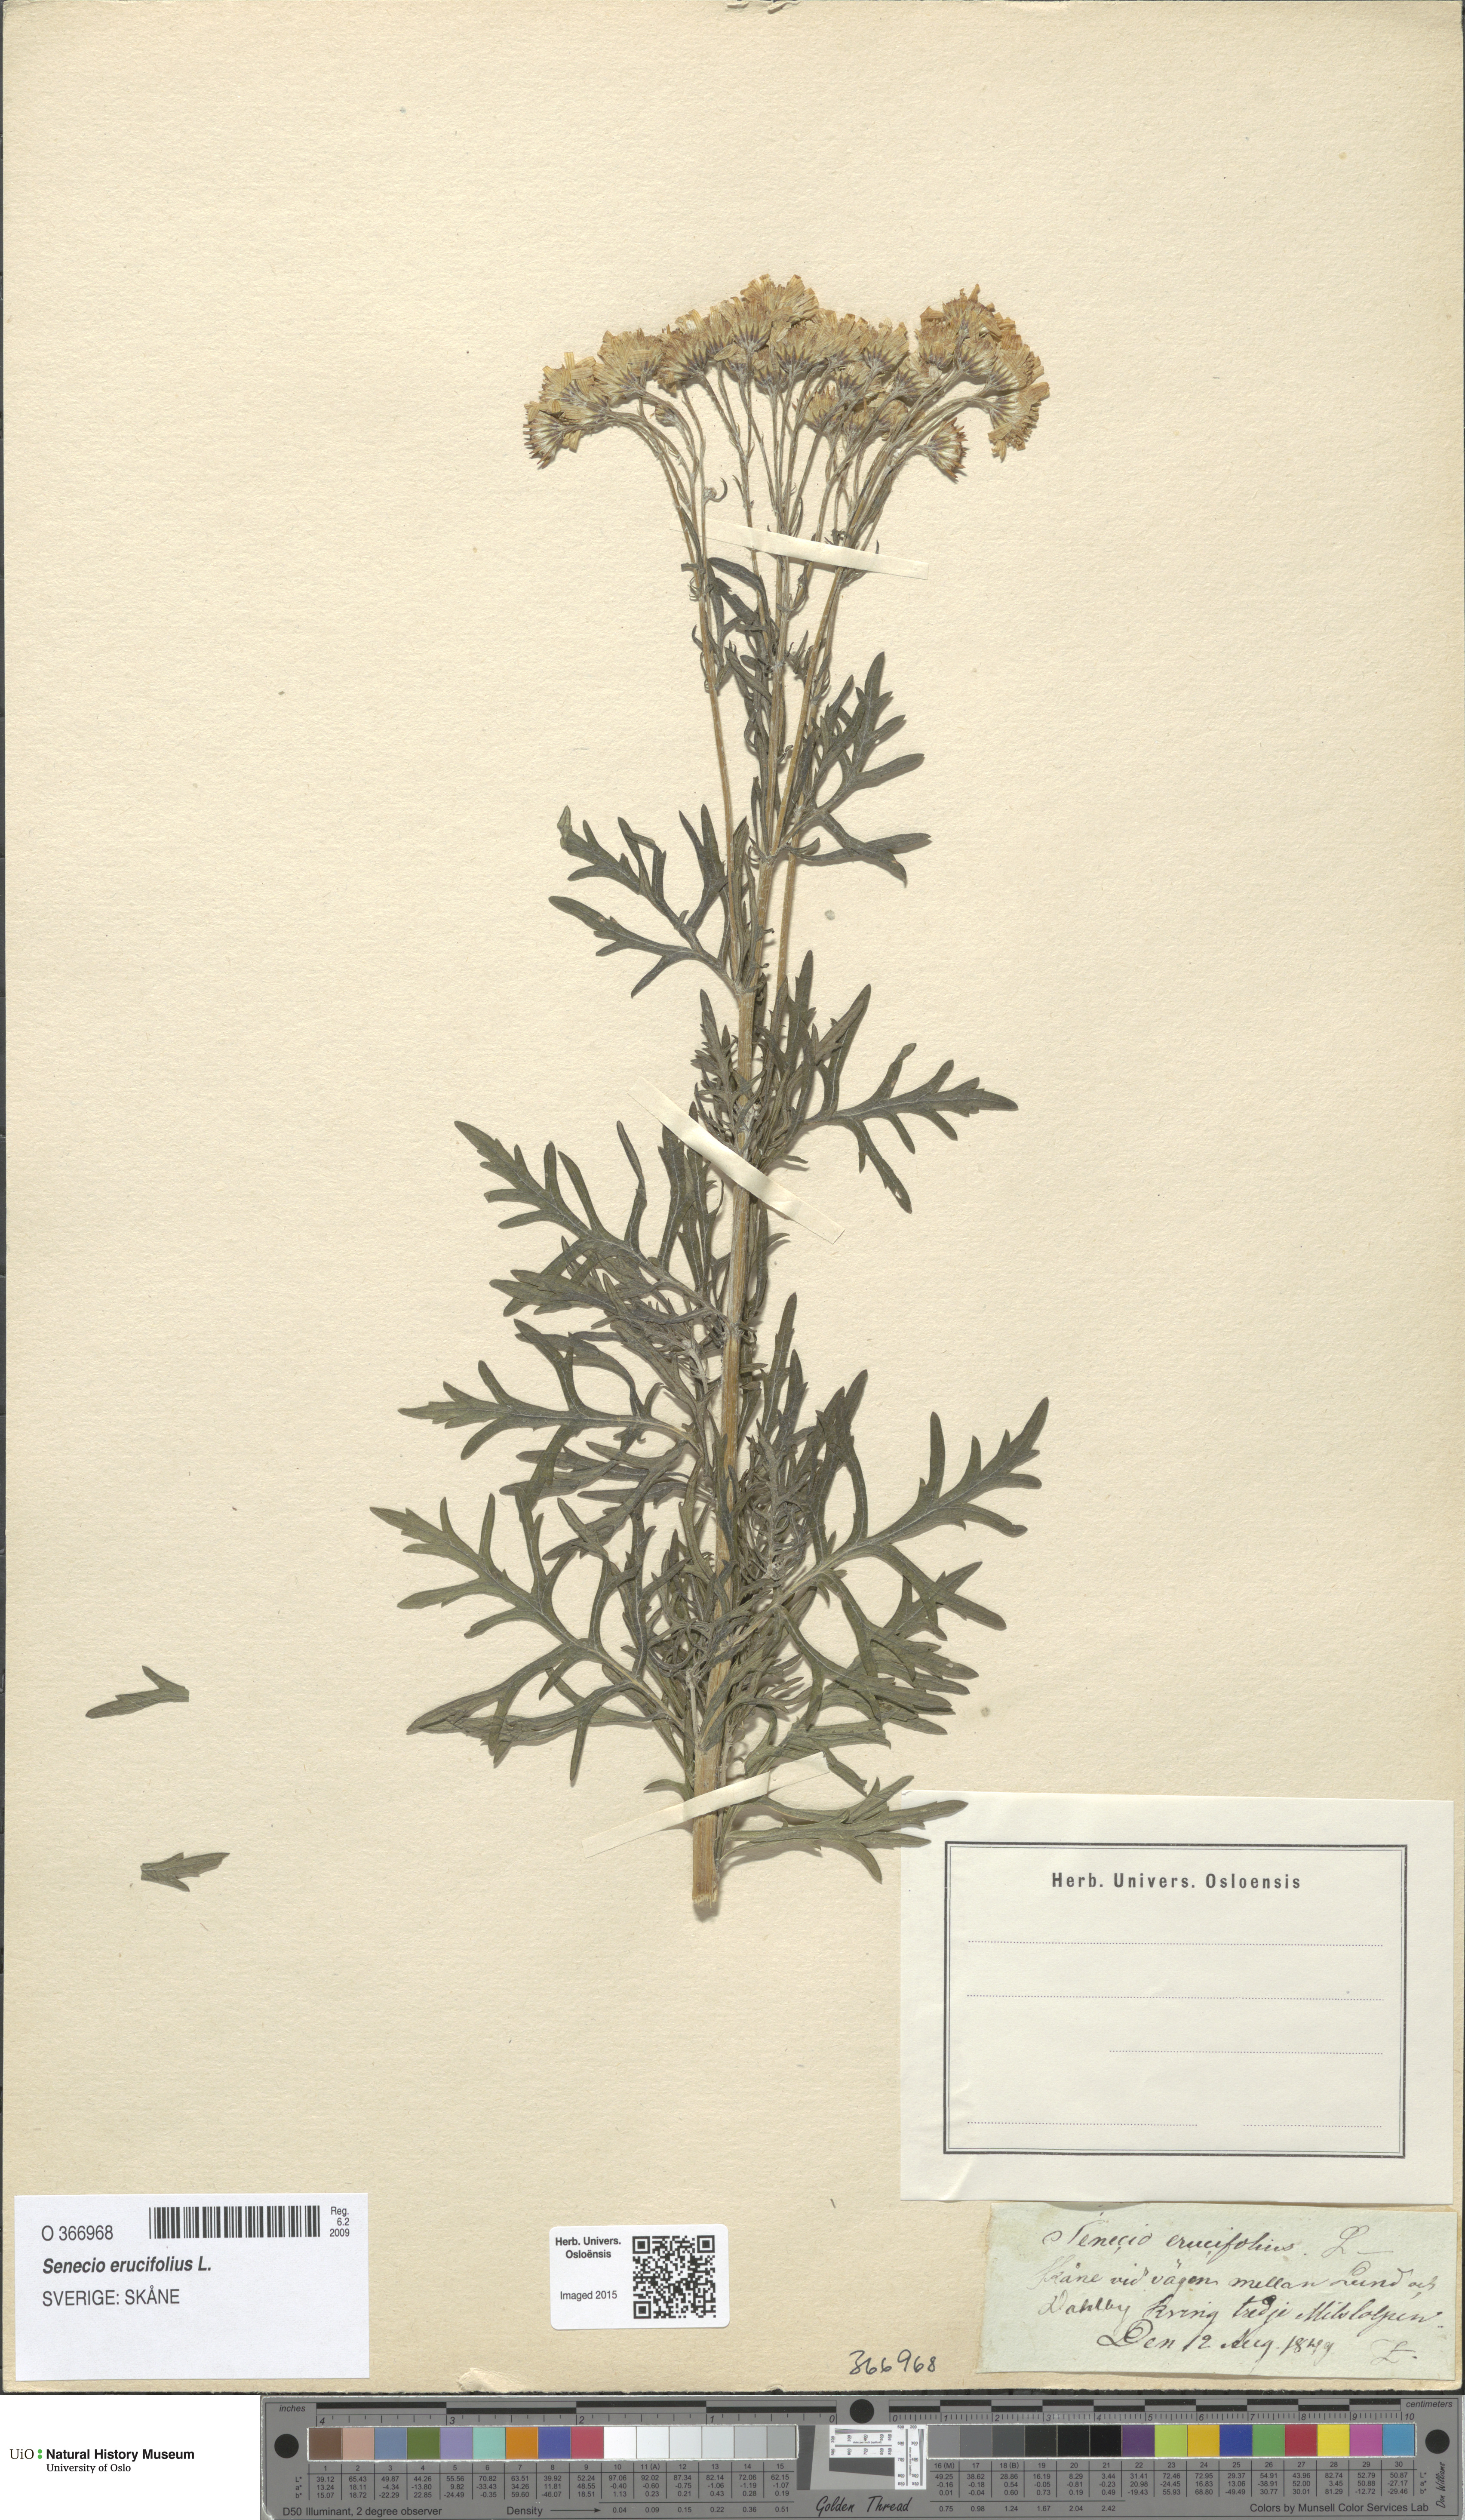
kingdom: Plantae
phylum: Tracheophyta
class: Magnoliopsida
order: Asterales
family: Asteraceae
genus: Jacobaea
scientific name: Jacobaea erucifolia
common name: Hoary ragwort
